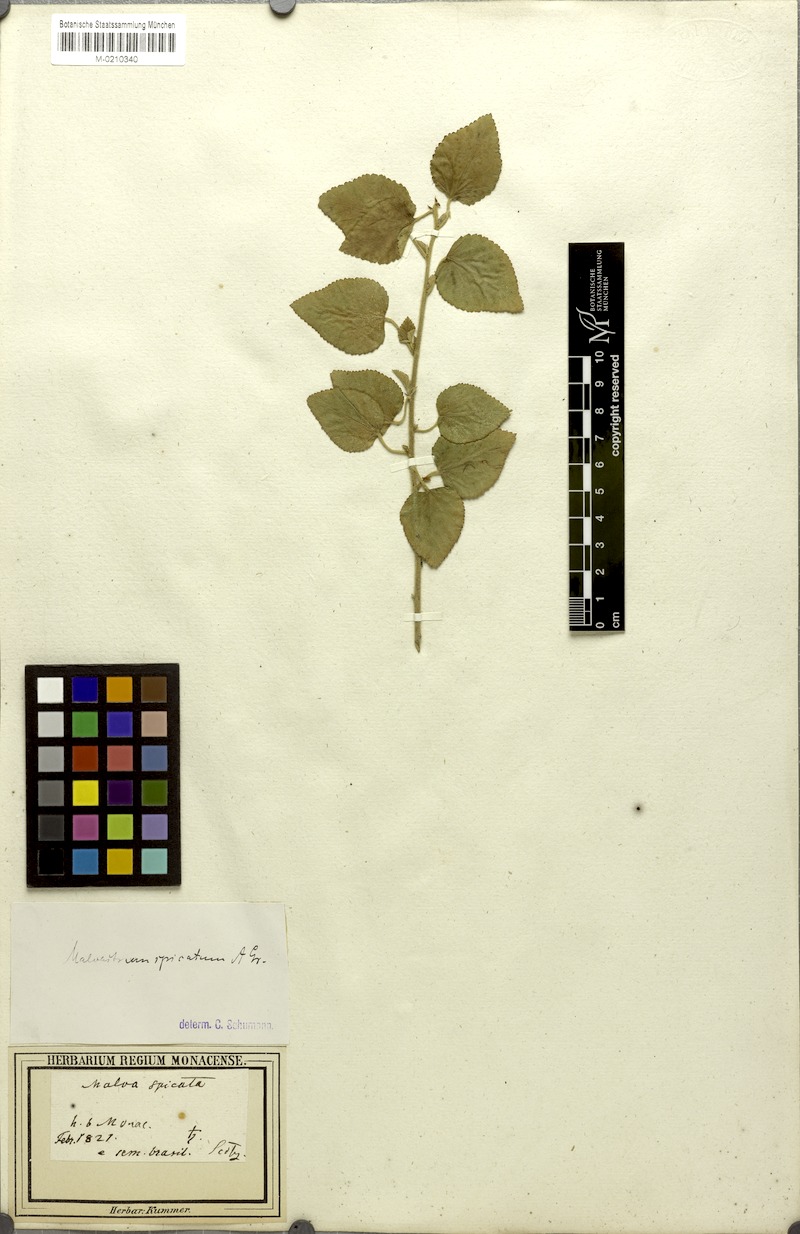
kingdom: Plantae
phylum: Tracheophyta
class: Magnoliopsida
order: Malvales
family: Malvaceae
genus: Melochia
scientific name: Melochia spicata
